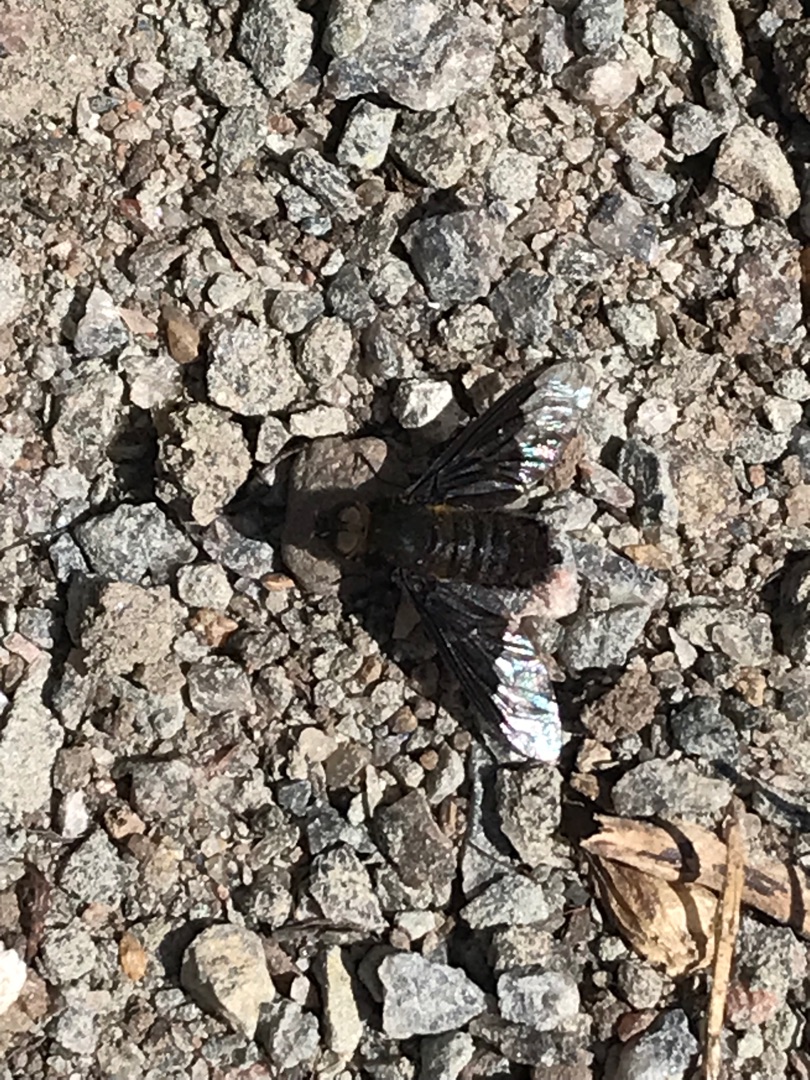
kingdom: Animalia
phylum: Arthropoda
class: Insecta
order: Diptera
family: Bombyliidae
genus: Hemipenthes
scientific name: Hemipenthes morio
